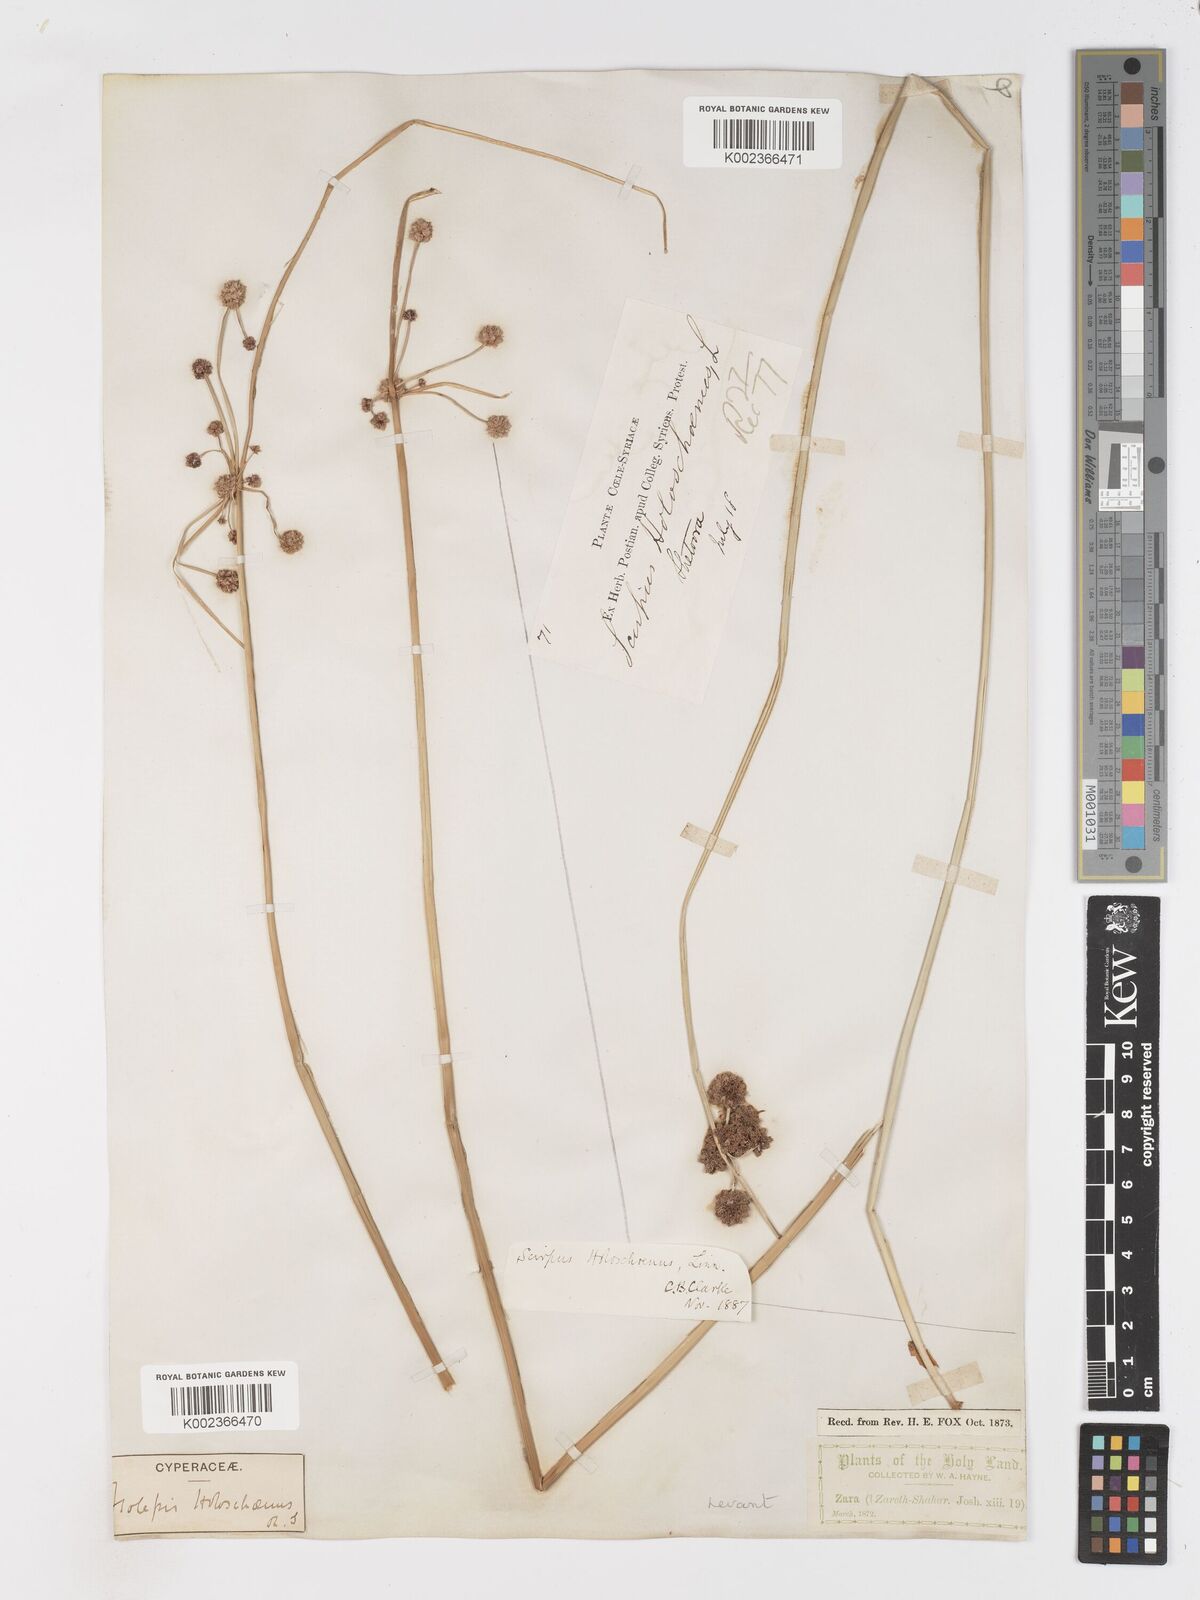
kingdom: Plantae
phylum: Tracheophyta
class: Liliopsida
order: Poales
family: Cyperaceae
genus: Scirpoides
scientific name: Scirpoides holoschoenus
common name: Round-headed club-rush
